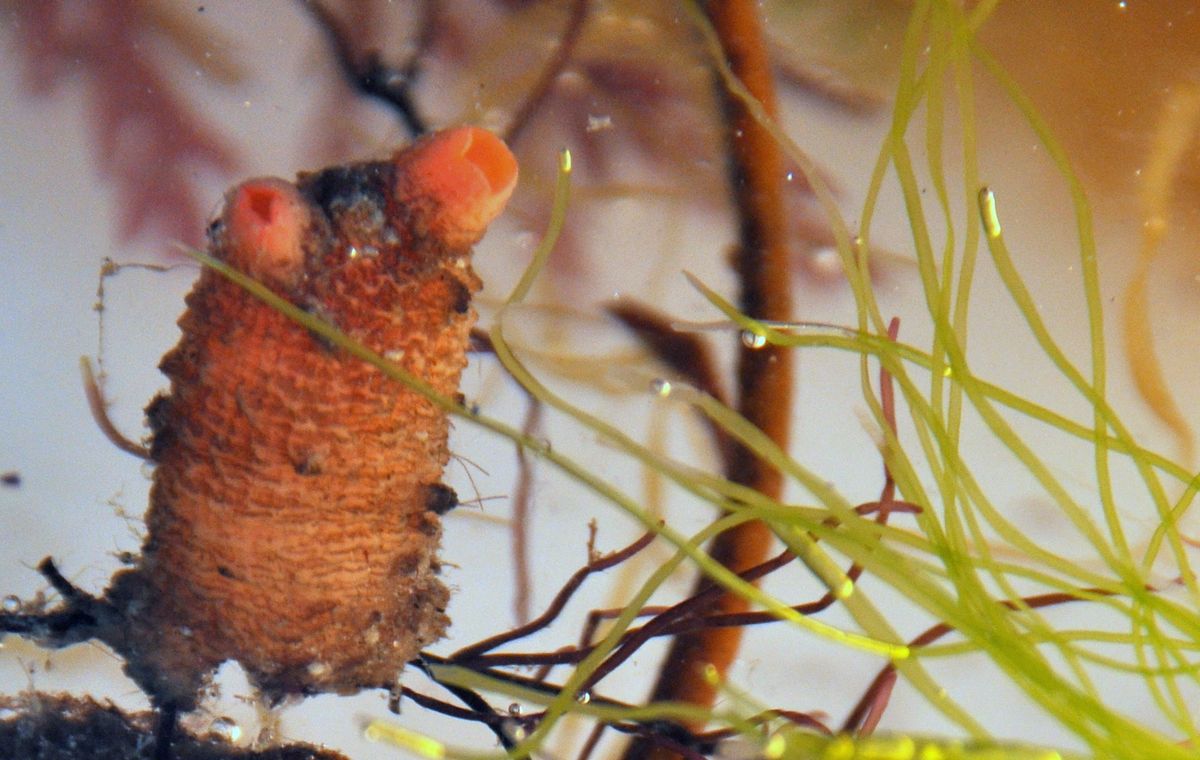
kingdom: Animalia
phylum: Chordata
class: Ascidiacea
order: Stolidobranchia
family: Styelidae
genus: Styela
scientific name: Styela rustica
